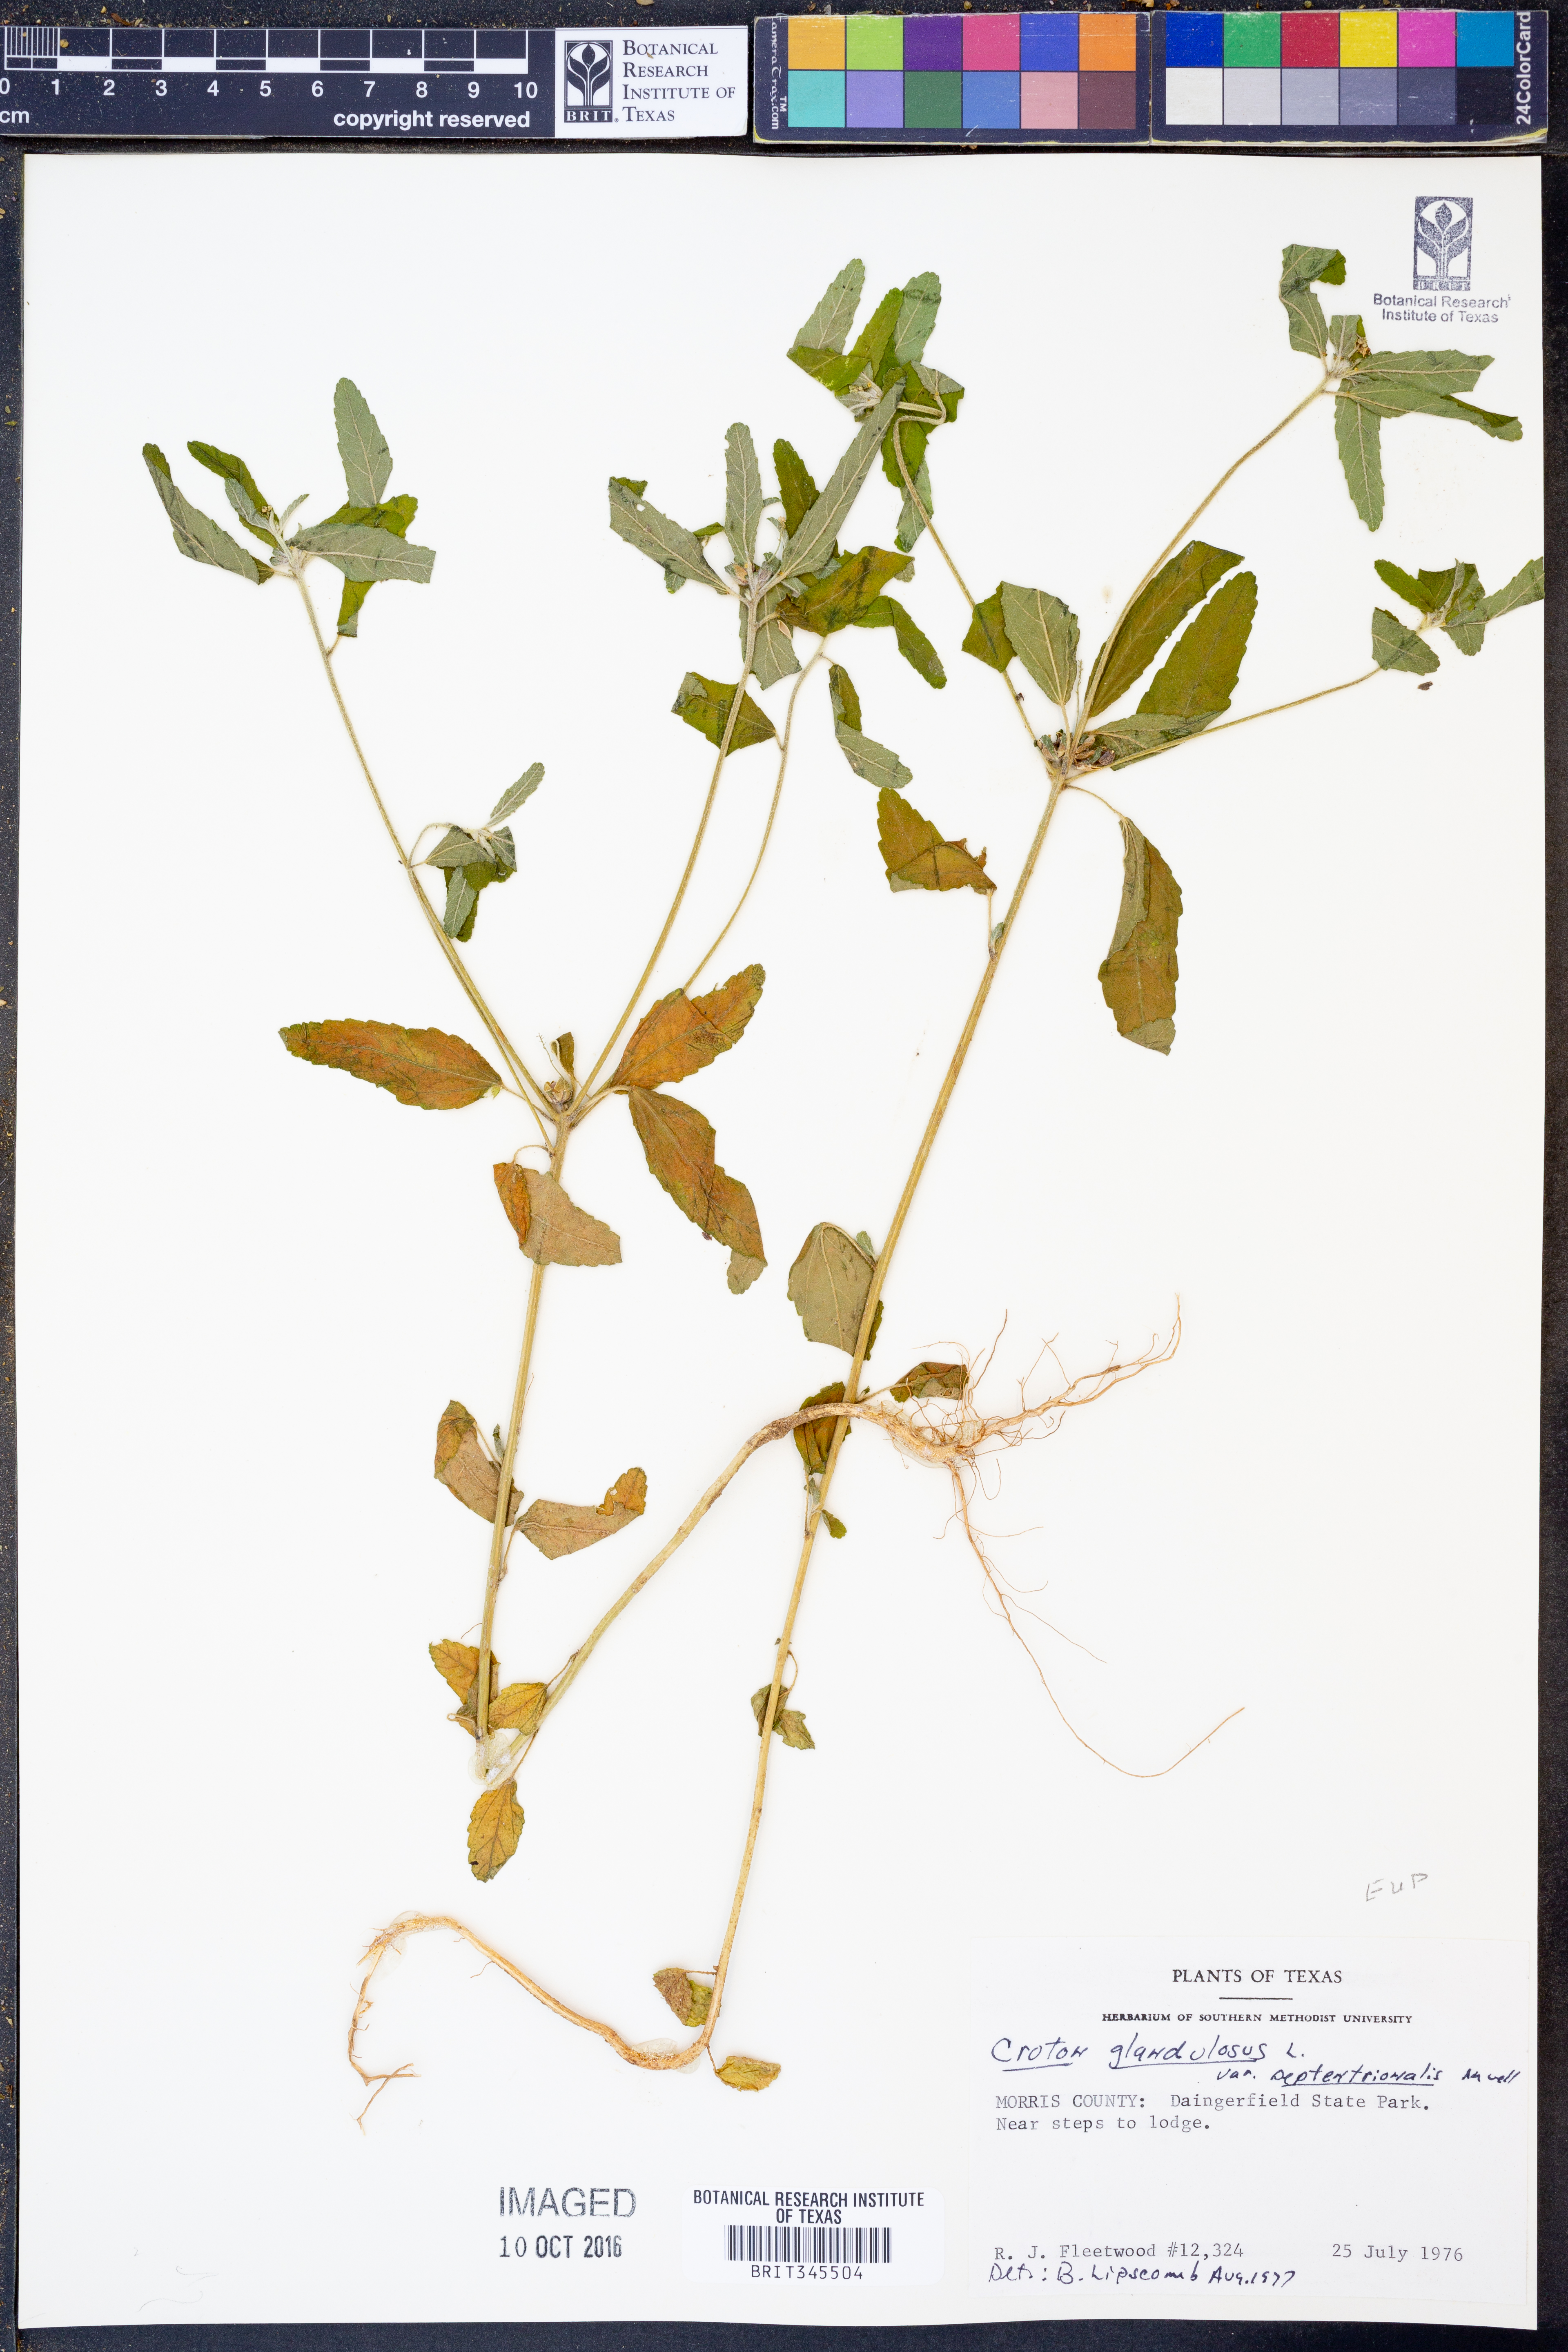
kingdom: Plantae
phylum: Tracheophyta
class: Magnoliopsida
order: Malpighiales
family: Euphorbiaceae
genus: Croton
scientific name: Croton glandulosus
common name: Tropic croton
